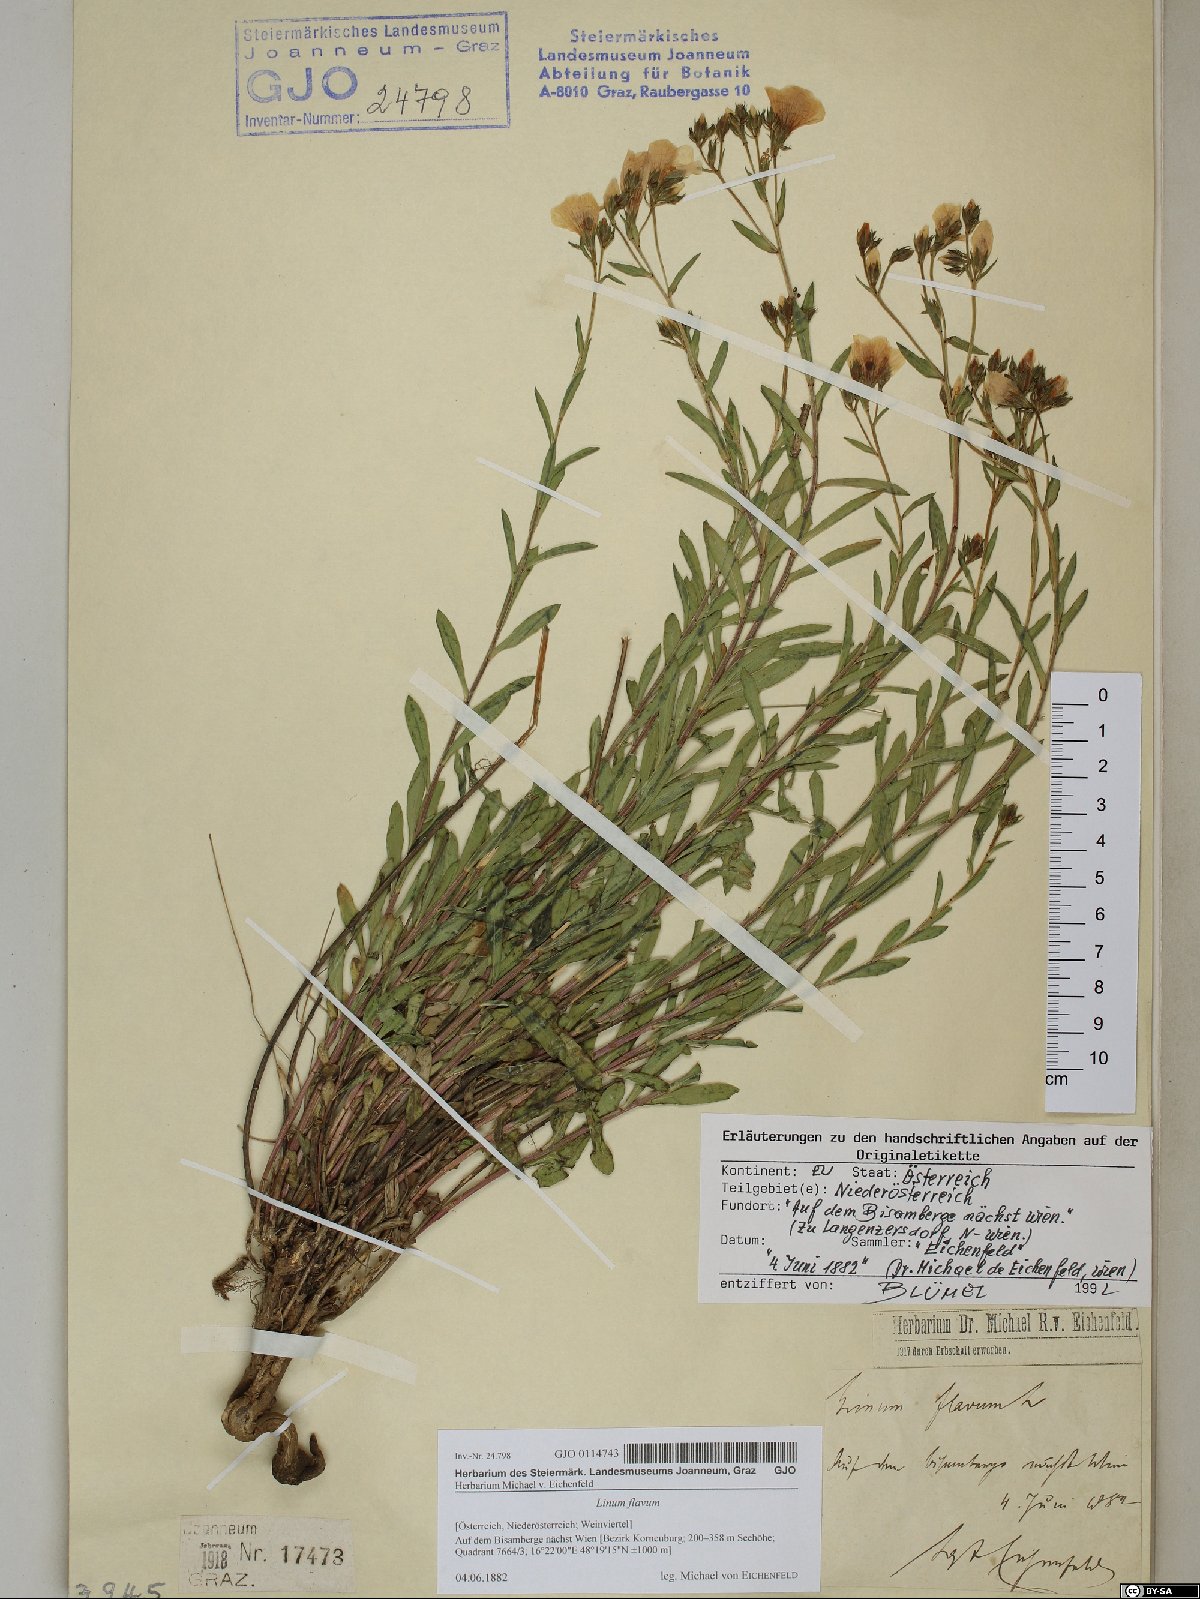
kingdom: Plantae
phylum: Tracheophyta
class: Magnoliopsida
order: Malpighiales
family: Linaceae
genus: Linum
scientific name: Linum flavum
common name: Yellow flax
